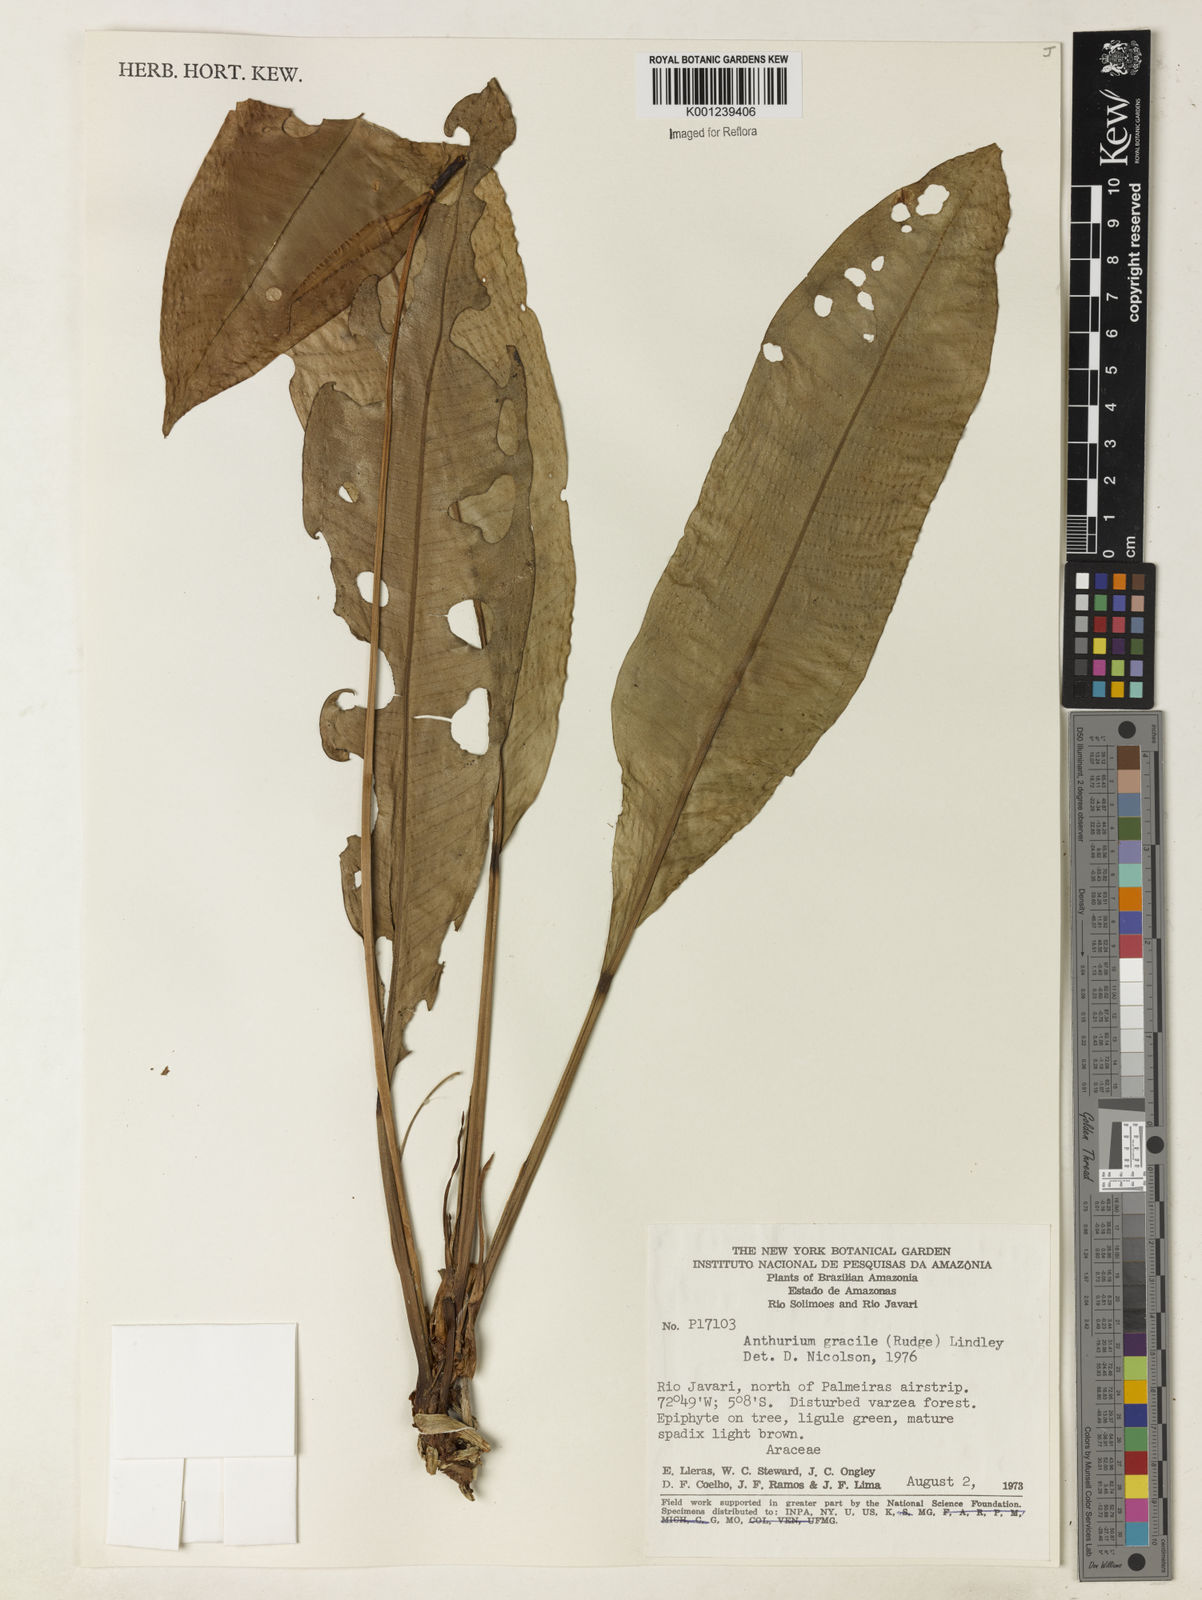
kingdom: Plantae
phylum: Tracheophyta
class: Liliopsida
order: Alismatales
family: Araceae
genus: Anthurium
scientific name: Anthurium gracile
